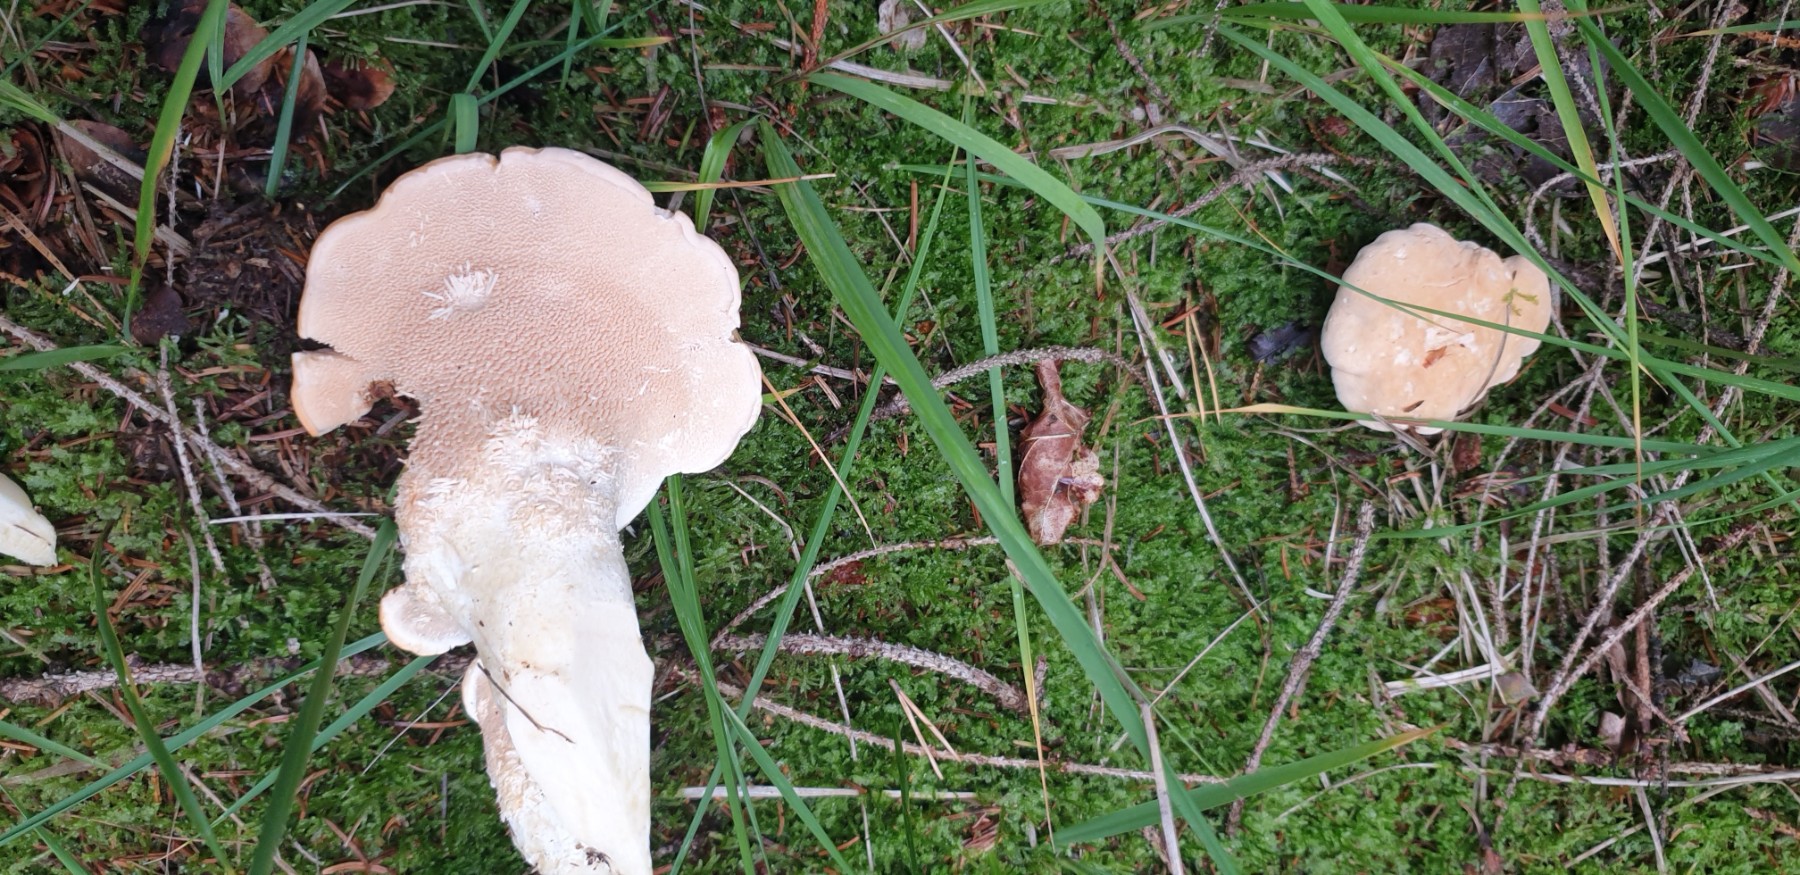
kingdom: Fungi
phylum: Basidiomycota
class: Agaricomycetes
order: Cantharellales
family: Hydnaceae
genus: Hydnum
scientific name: Hydnum
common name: pigsvamp
